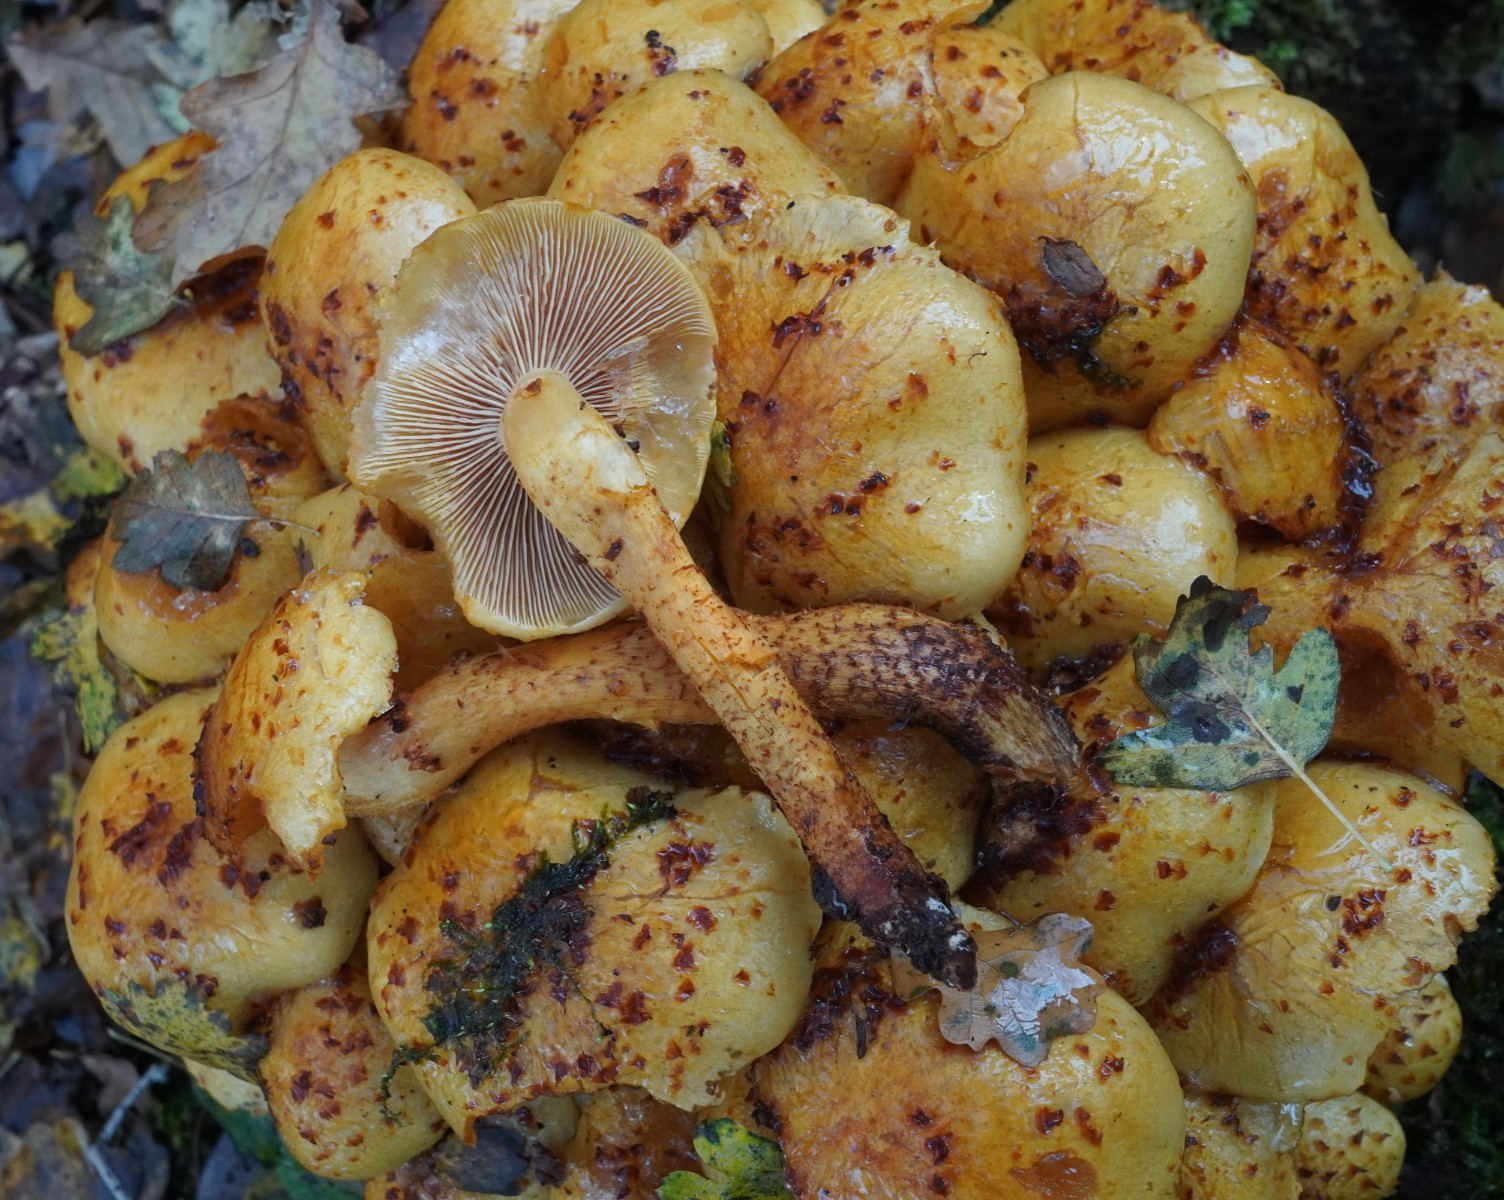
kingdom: Fungi
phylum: Basidiomycota
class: Agaricomycetes
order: Agaricales
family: Strophariaceae
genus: Pholiota
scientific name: Pholiota
